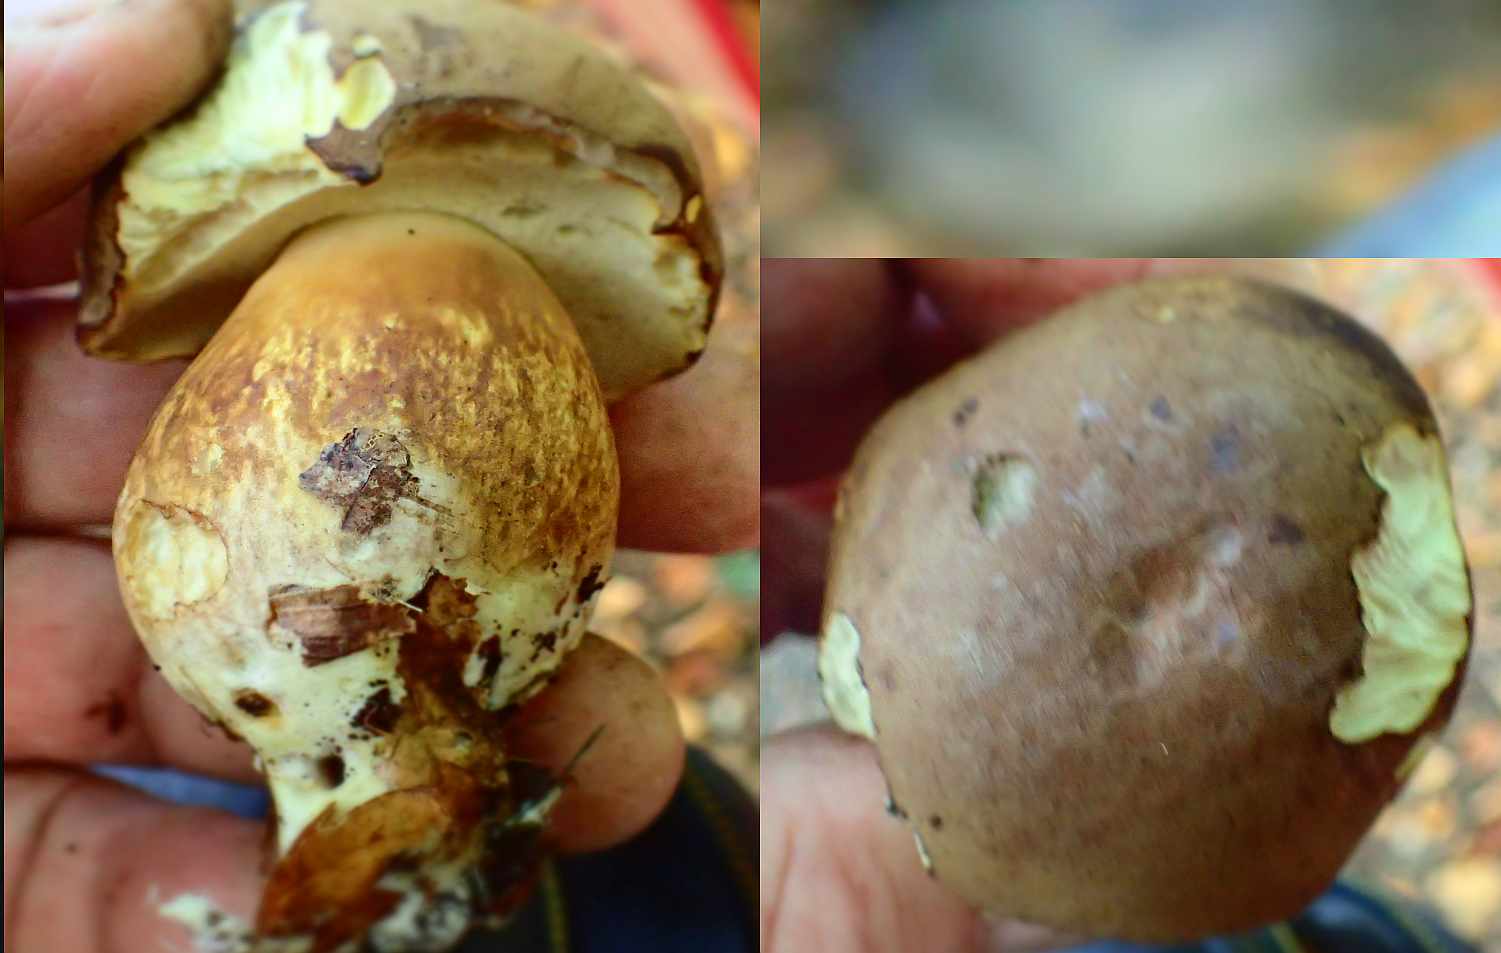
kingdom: Fungi
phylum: Basidiomycota
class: Agaricomycetes
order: Boletales
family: Boletaceae
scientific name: Boletaceae
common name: rørhatfamilien
